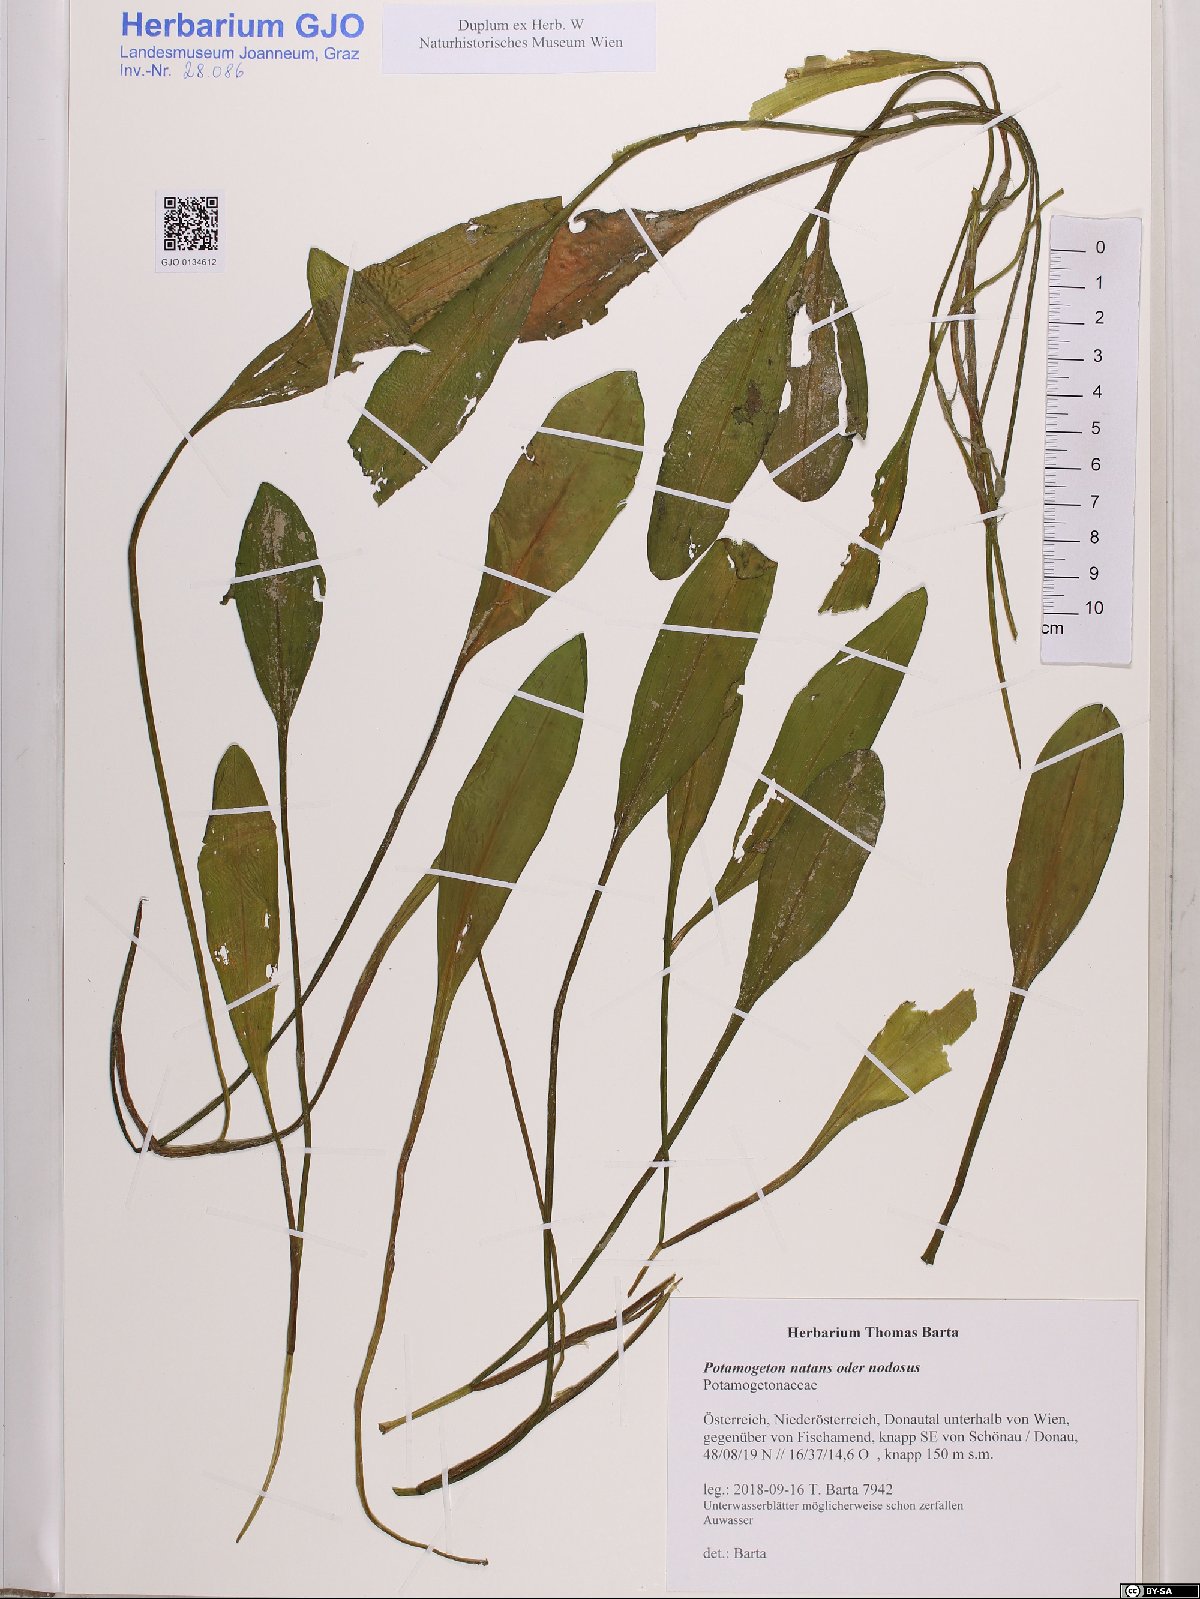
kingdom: Plantae
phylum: Tracheophyta
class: Liliopsida
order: Alismatales
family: Potamogetonaceae
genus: Potamogeton
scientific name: Potamogeton natans
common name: Broad-leaved pondweed
